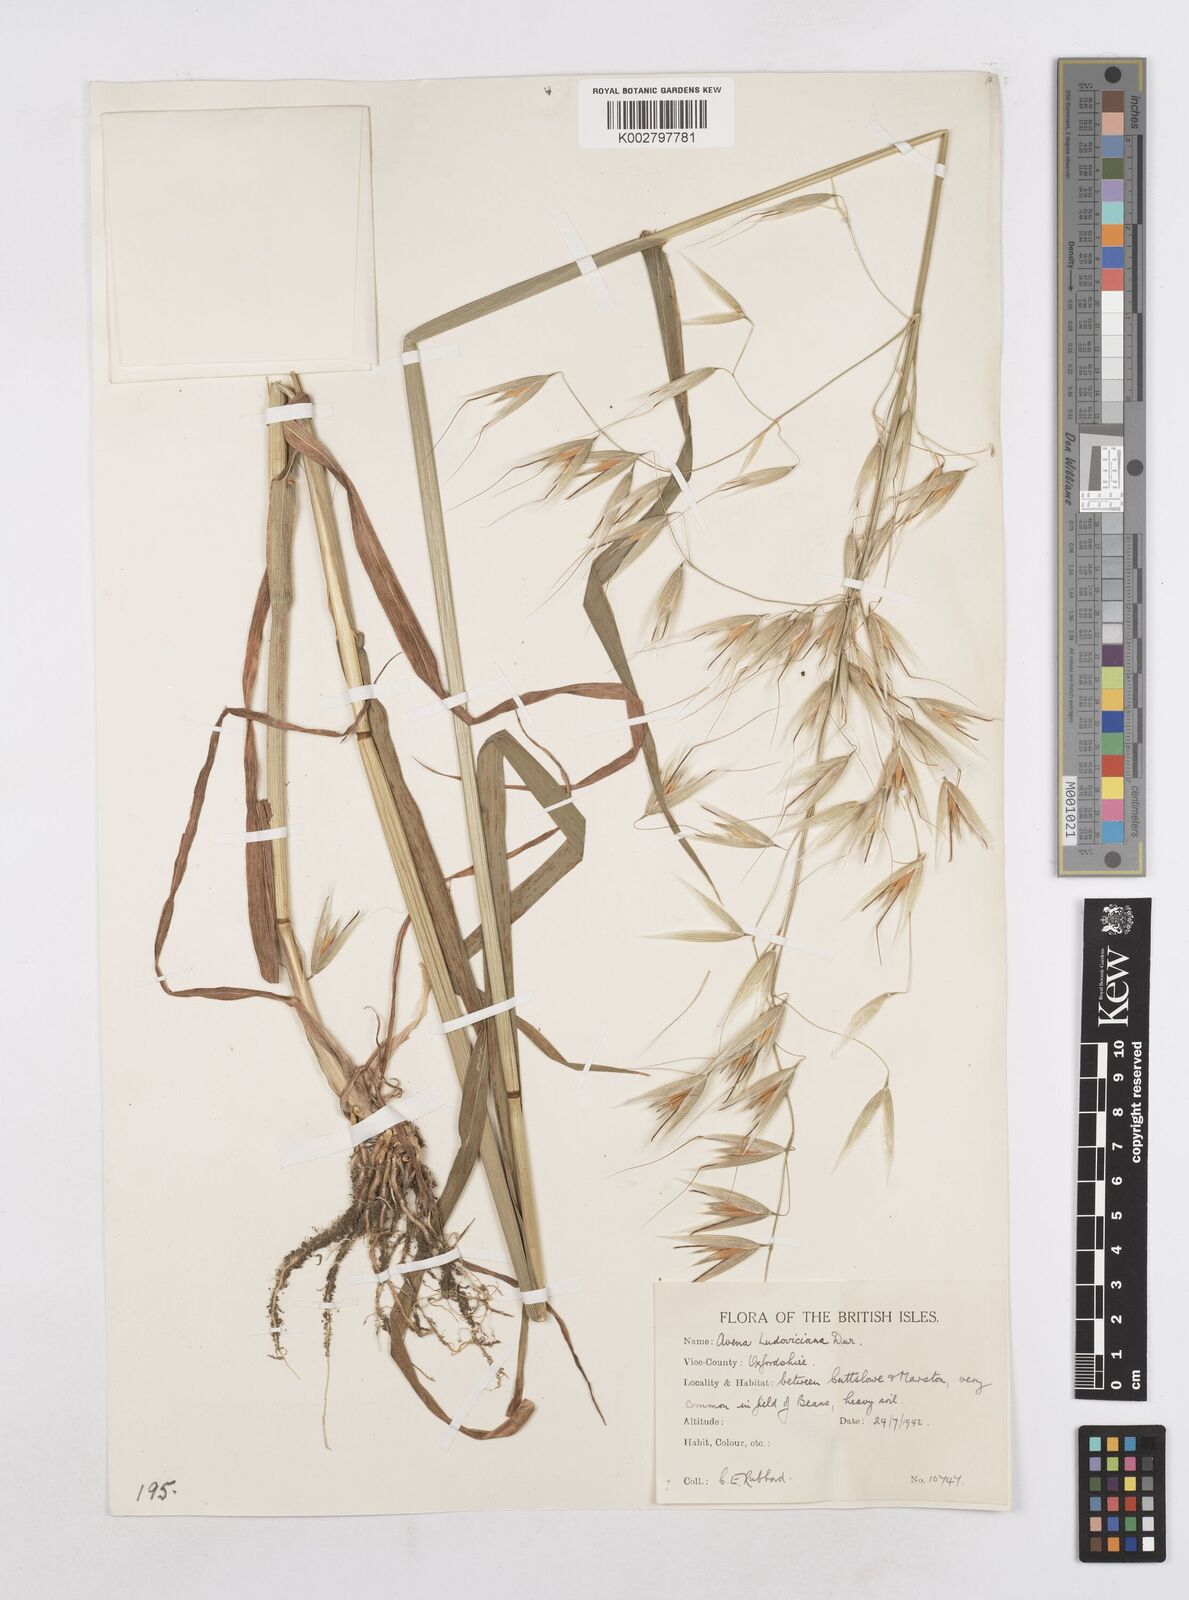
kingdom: Plantae
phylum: Tracheophyta
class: Liliopsida
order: Poales
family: Poaceae
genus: Avena
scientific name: Avena sterilis
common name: Animated oat
